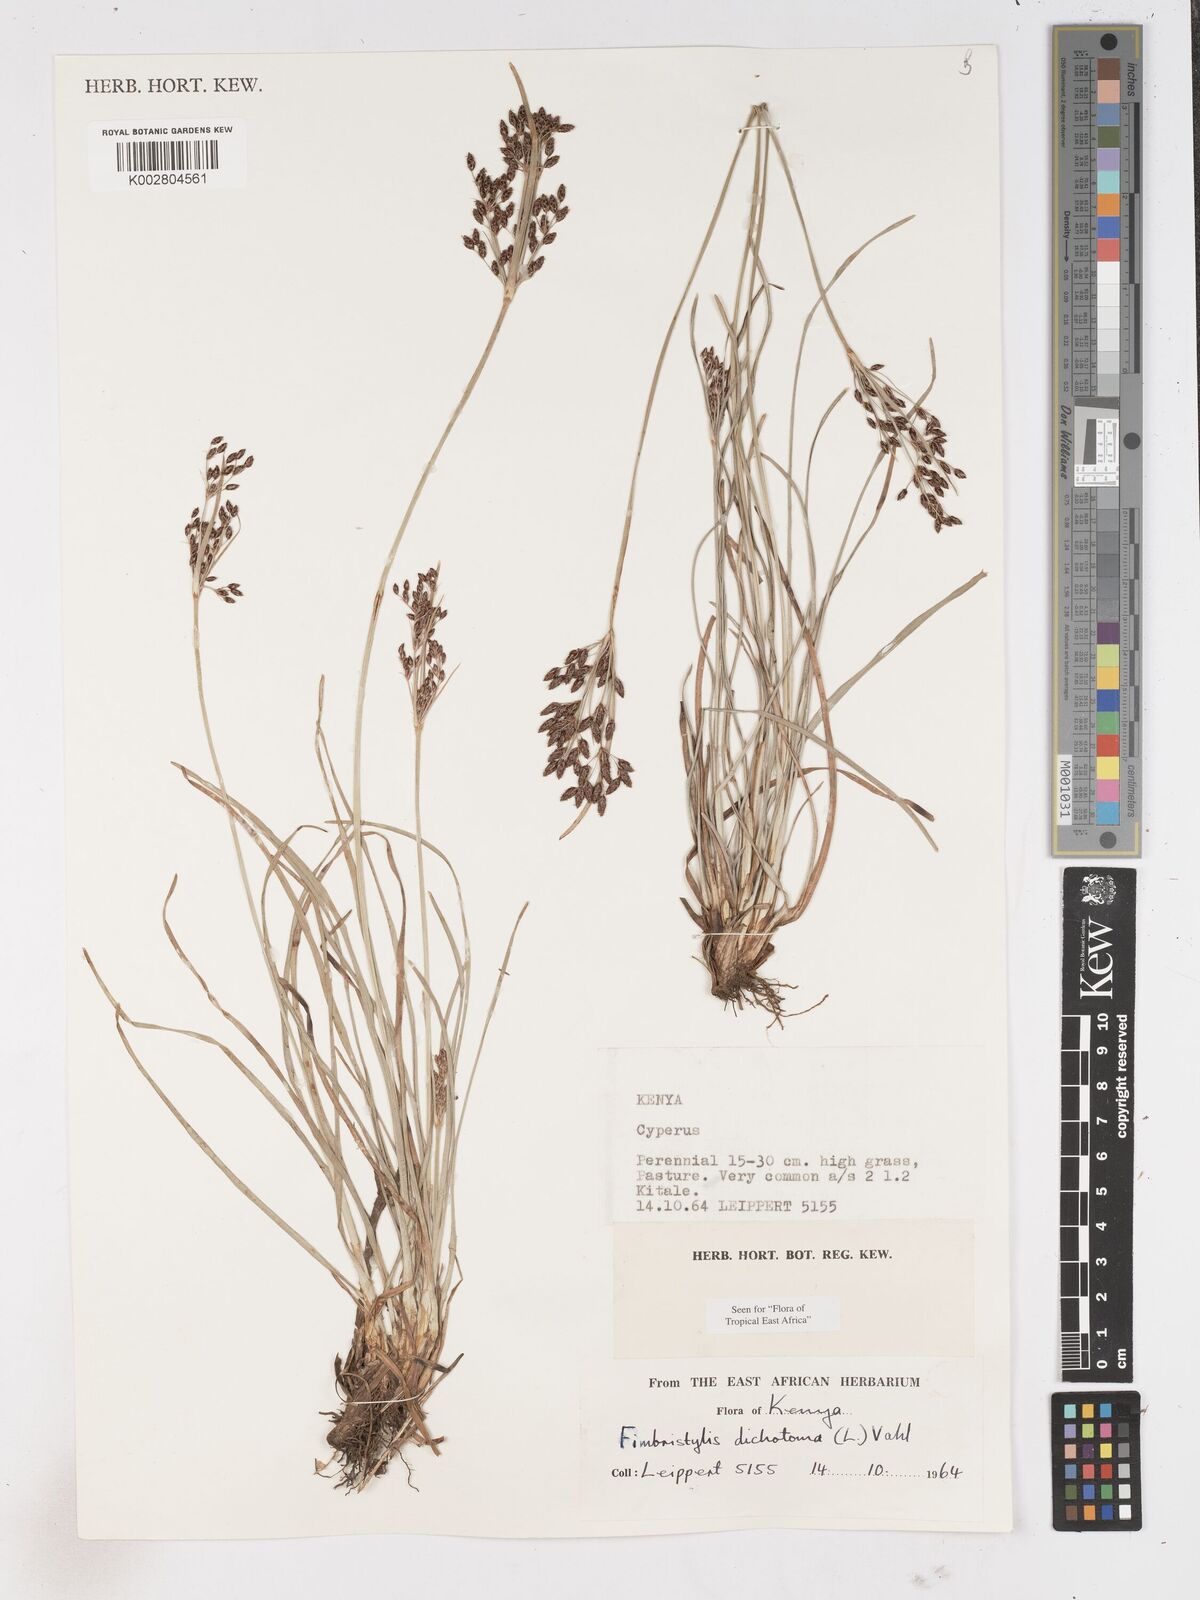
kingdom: Plantae
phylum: Tracheophyta
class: Liliopsida
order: Poales
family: Cyperaceae
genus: Fimbristylis
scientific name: Fimbristylis dichotoma
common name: Forked fimbry
